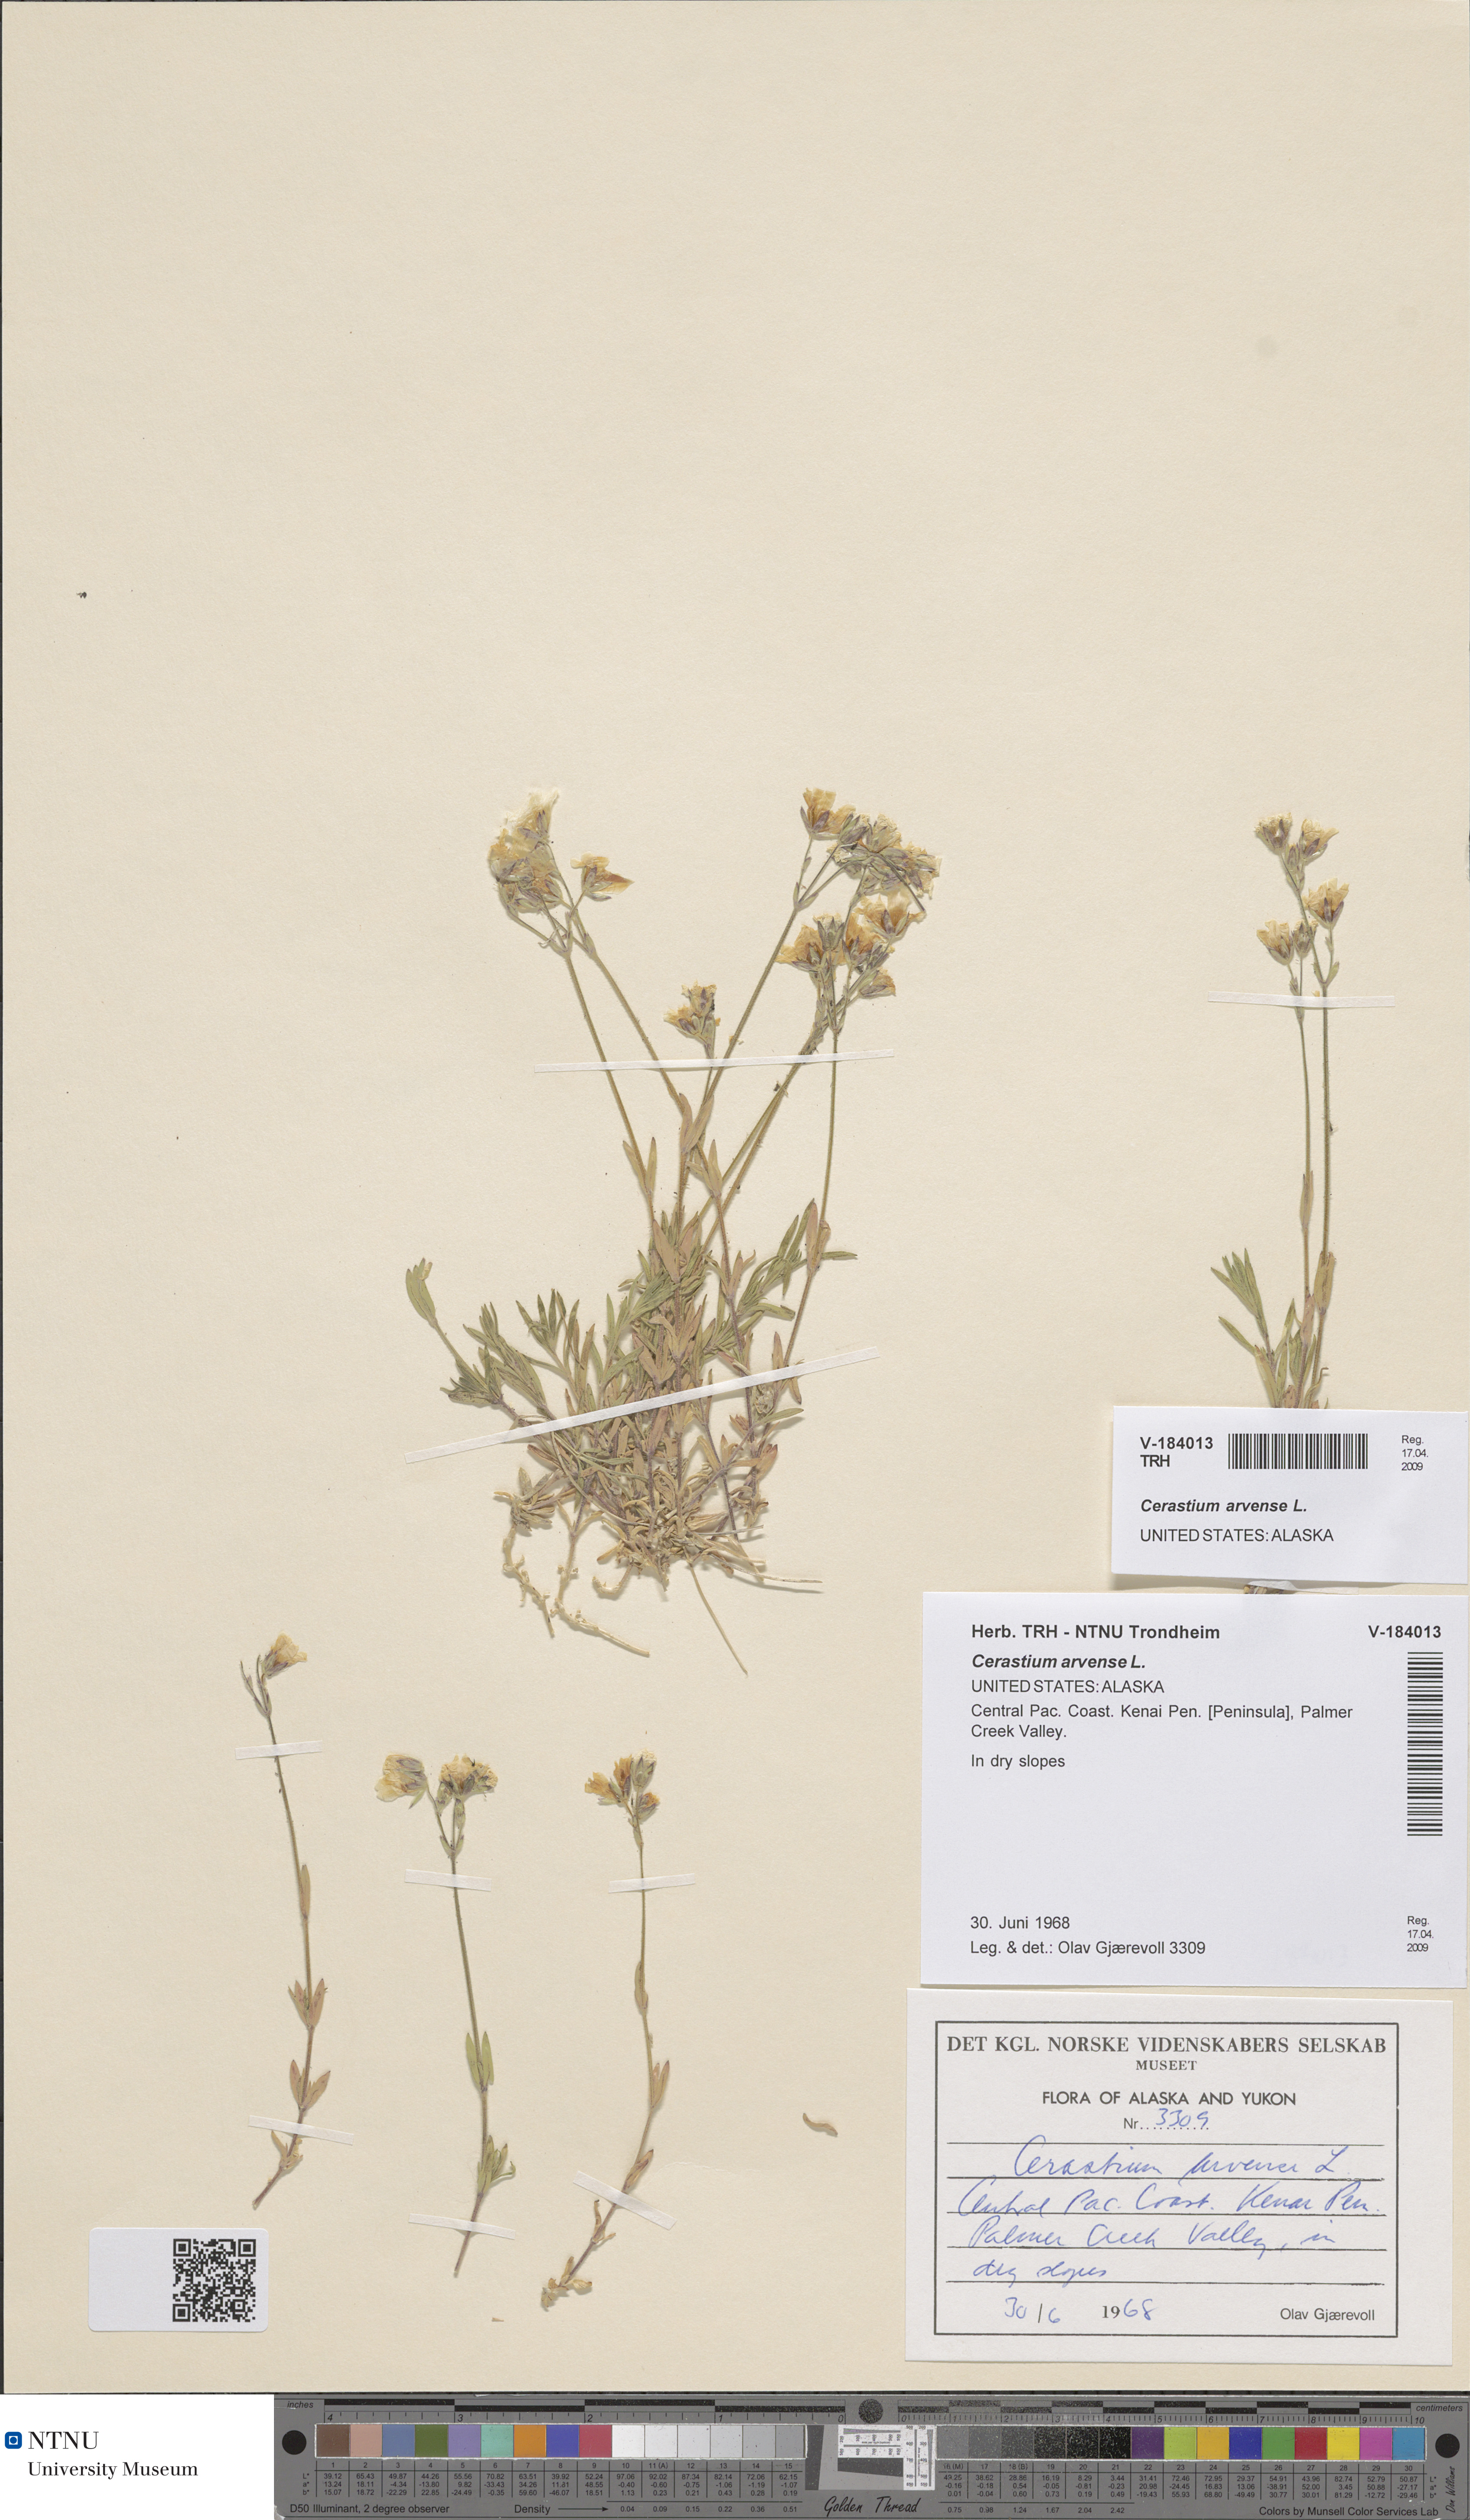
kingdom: Plantae
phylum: Tracheophyta
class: Magnoliopsida
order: Caryophyllales
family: Caryophyllaceae
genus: Cerastium
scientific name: Cerastium arvense
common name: Field mouse-ear
